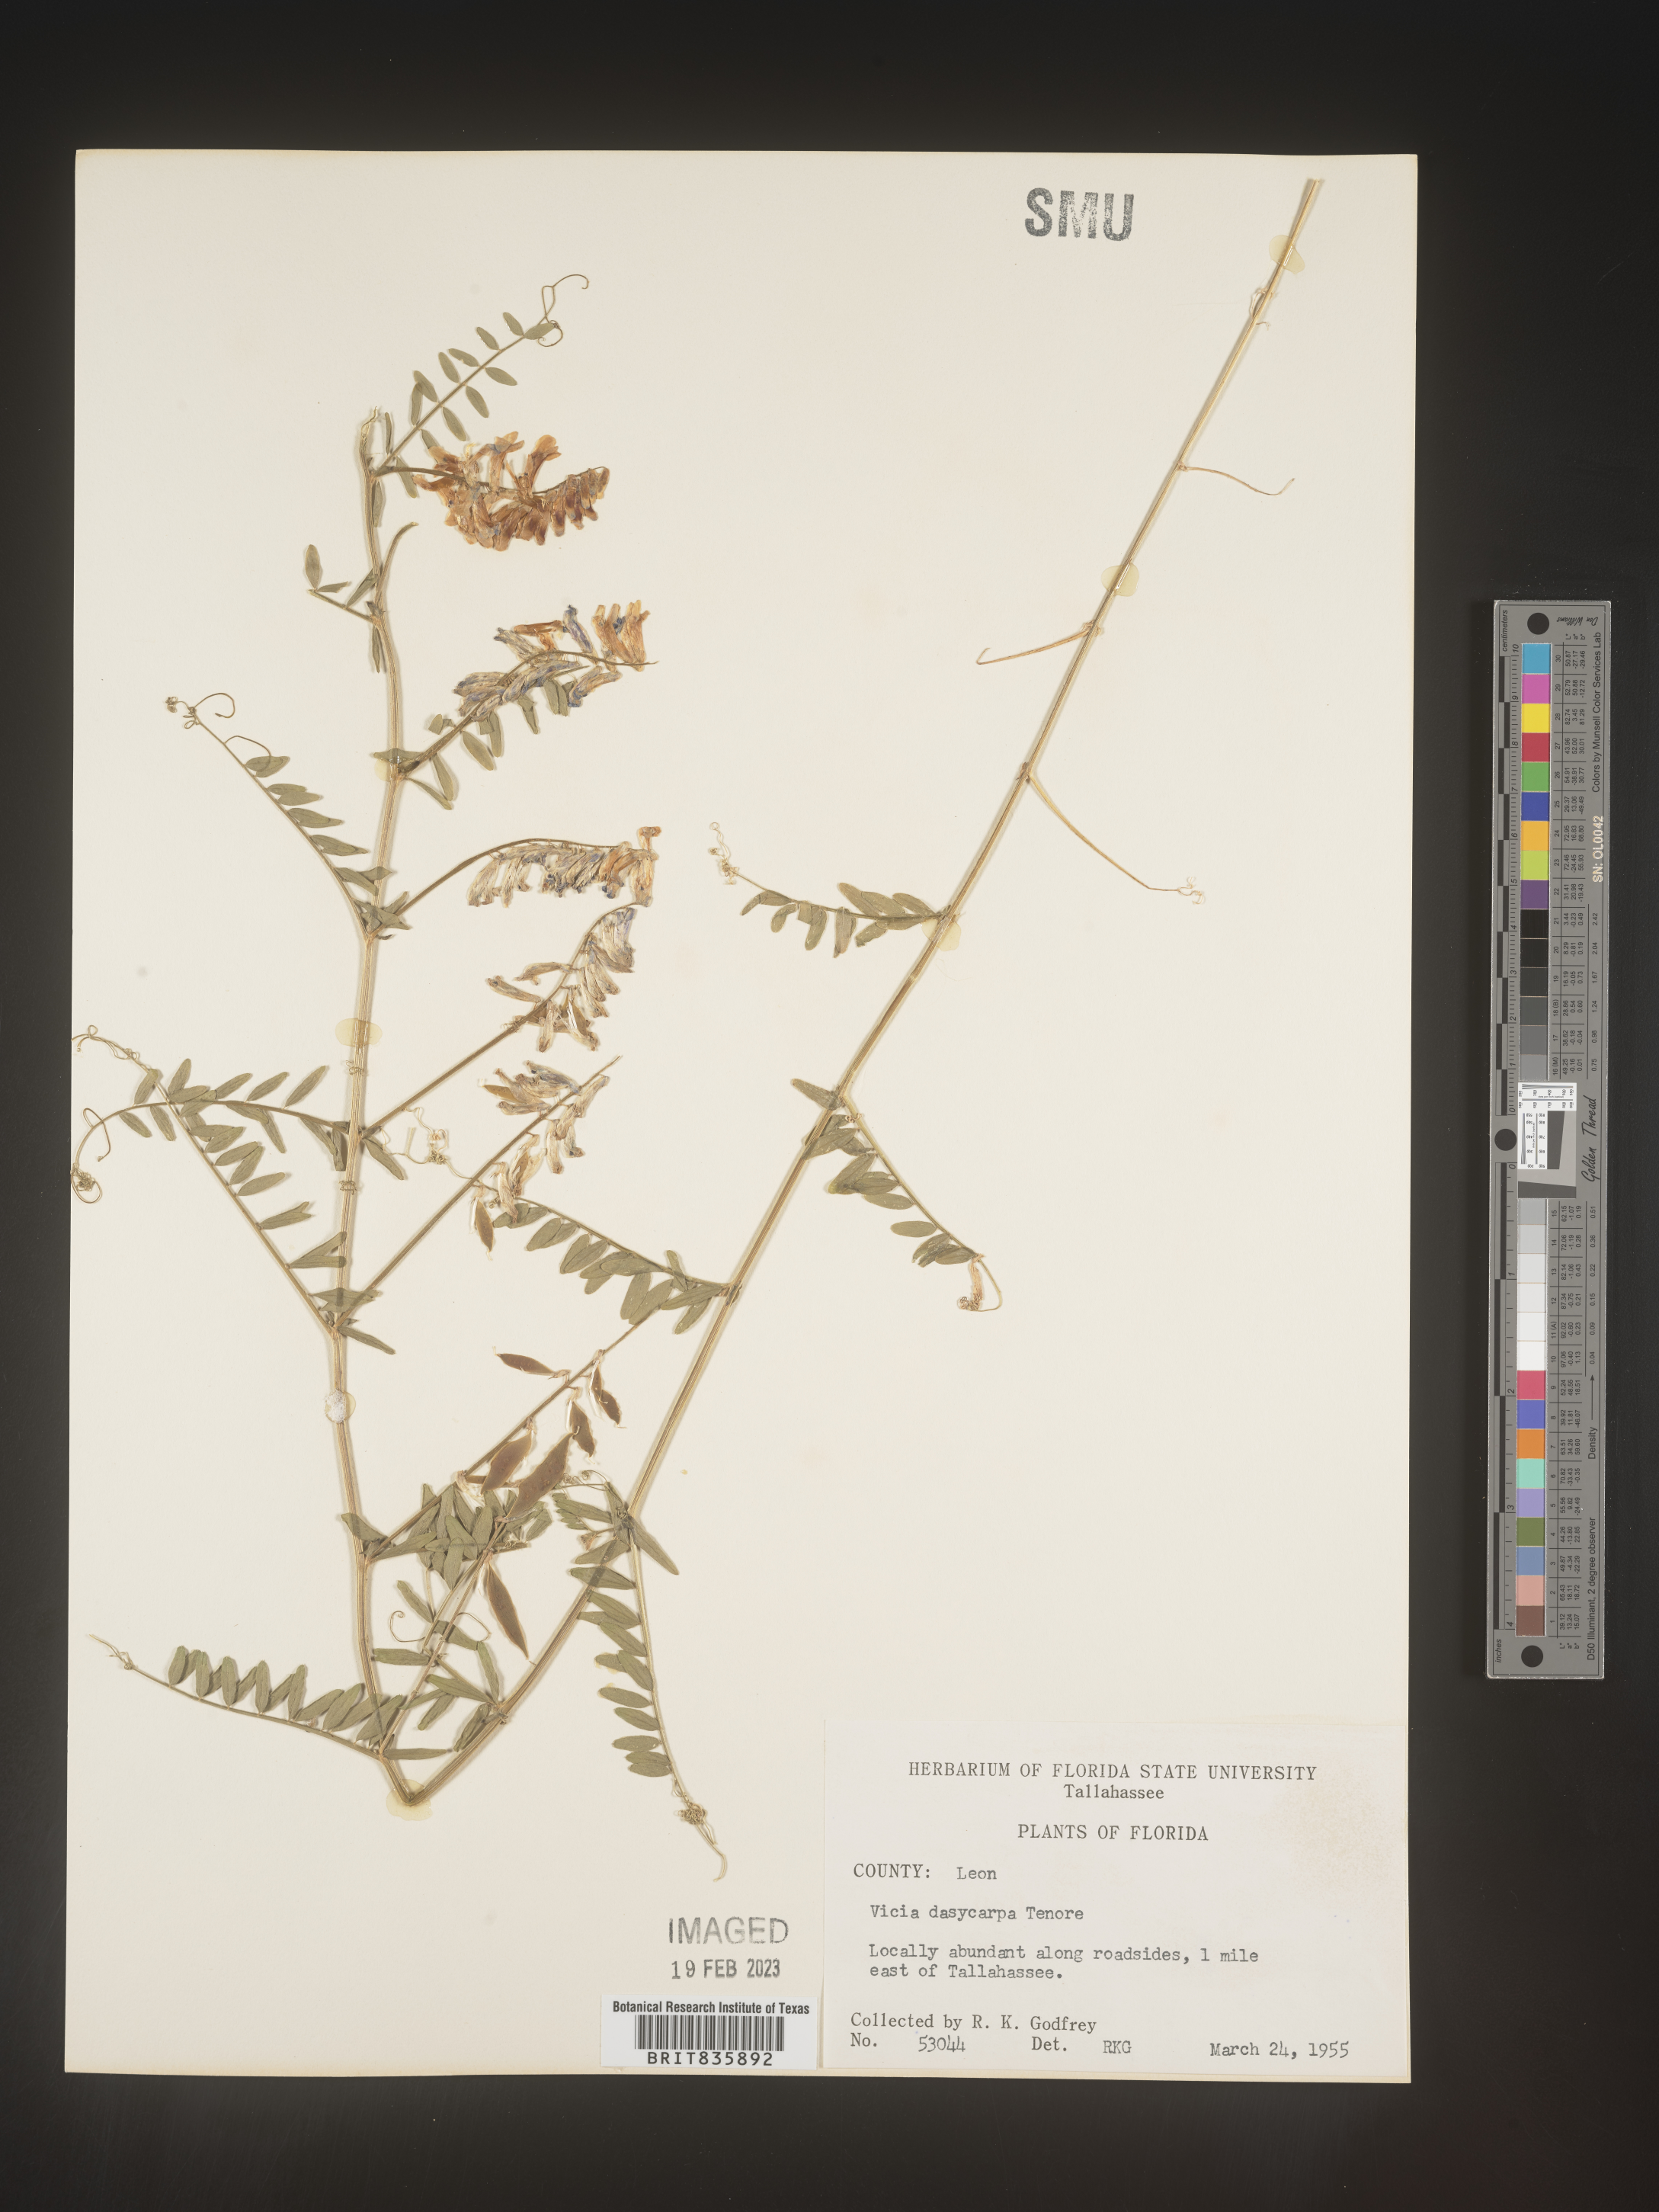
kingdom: Plantae
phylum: Tracheophyta
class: Magnoliopsida
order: Fabales
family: Fabaceae
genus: Vicia
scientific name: Vicia villosa
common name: Fodder vetch
